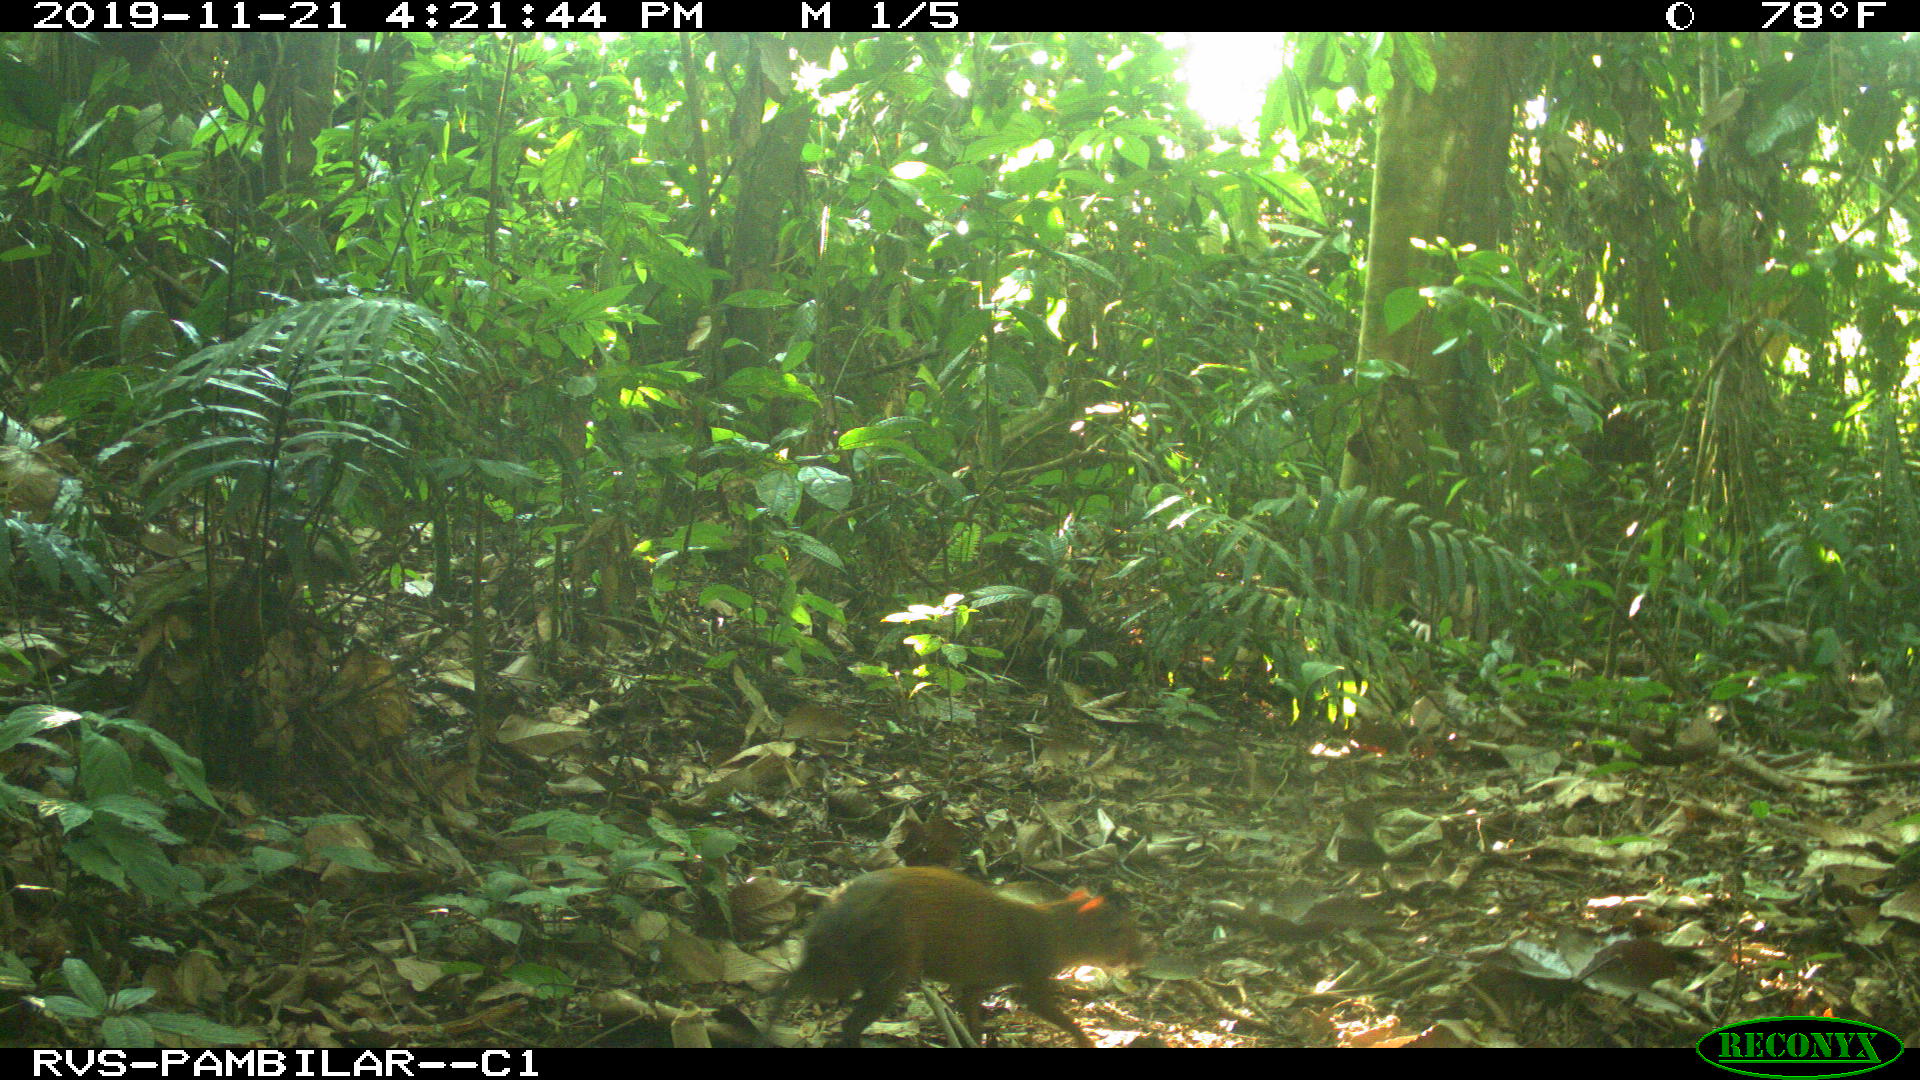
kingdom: Animalia
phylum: Chordata
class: Mammalia
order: Rodentia
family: Dasyproctidae
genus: Dasyprocta
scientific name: Dasyprocta punctata
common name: Central american agouti
